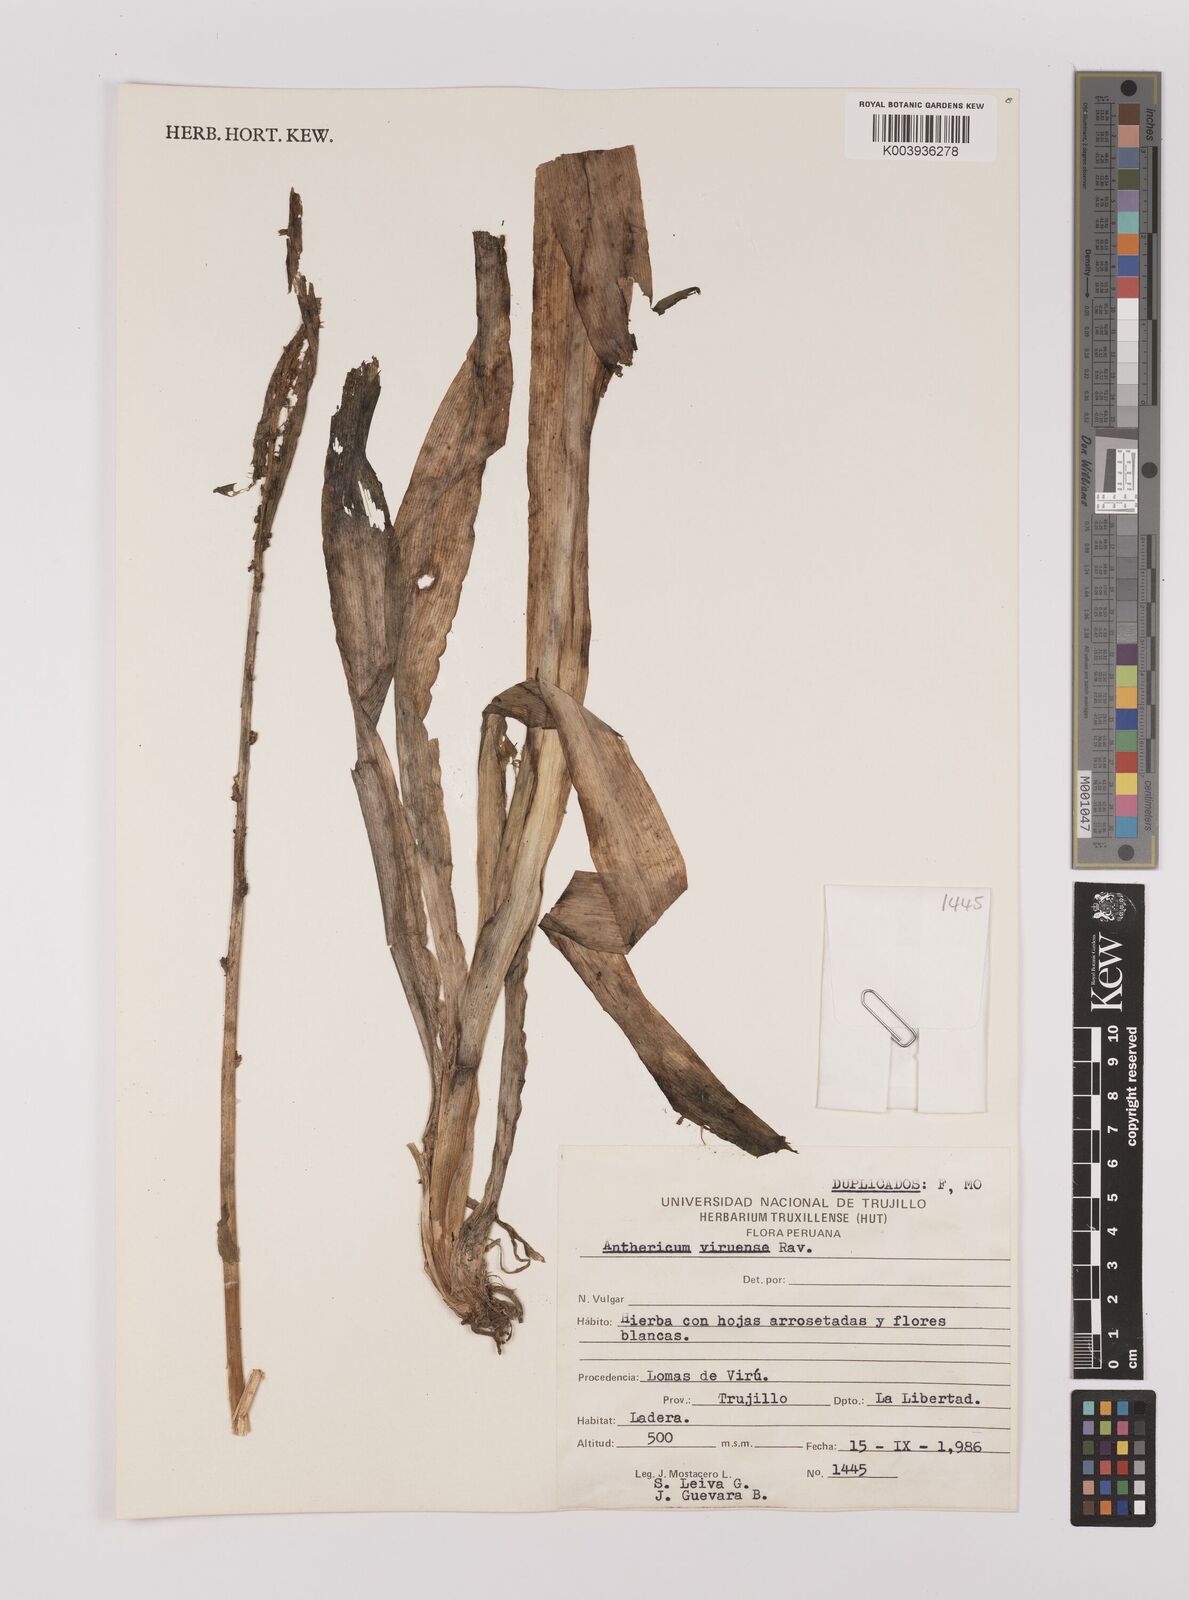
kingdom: Plantae
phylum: Tracheophyta
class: Liliopsida
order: Asparagales
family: Asparagaceae
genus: Echeandia
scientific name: Echeandia
